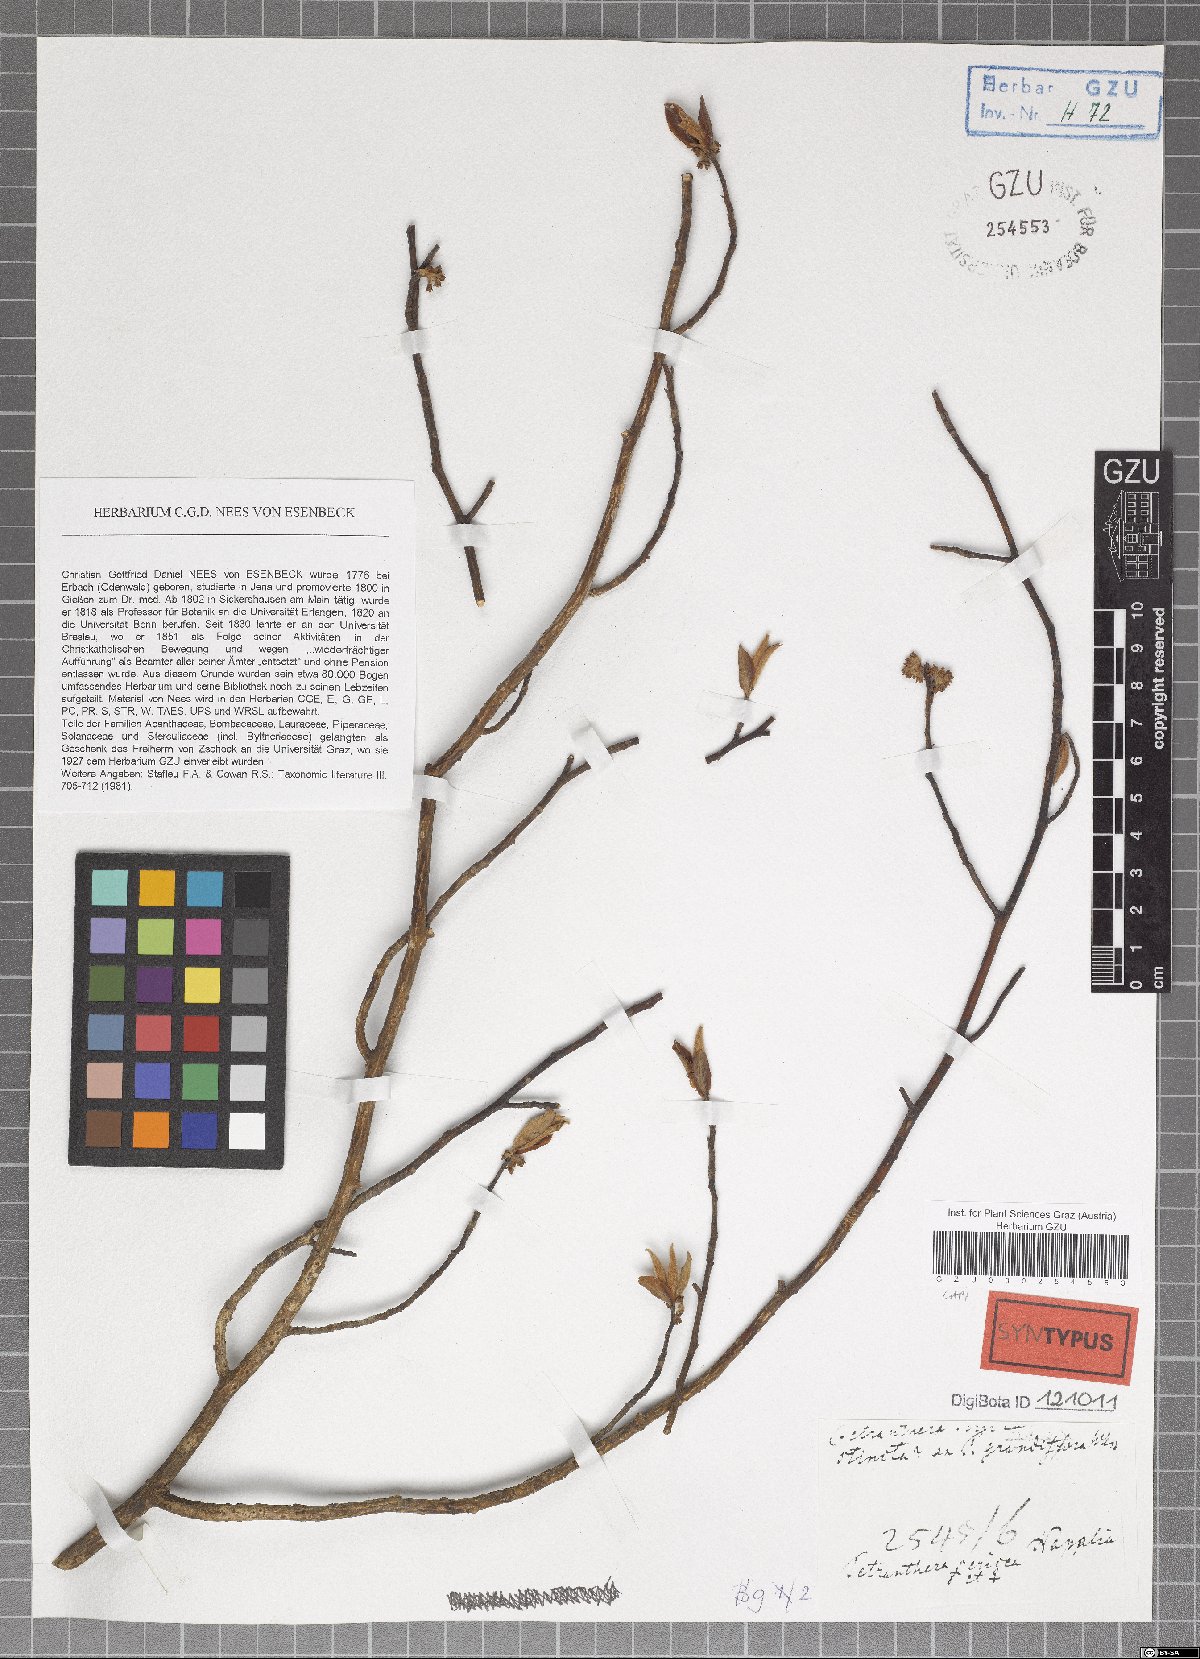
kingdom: Plantae
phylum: Tracheophyta
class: Magnoliopsida
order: Laurales
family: Lauraceae
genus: Litsea
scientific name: Litsea sericea
